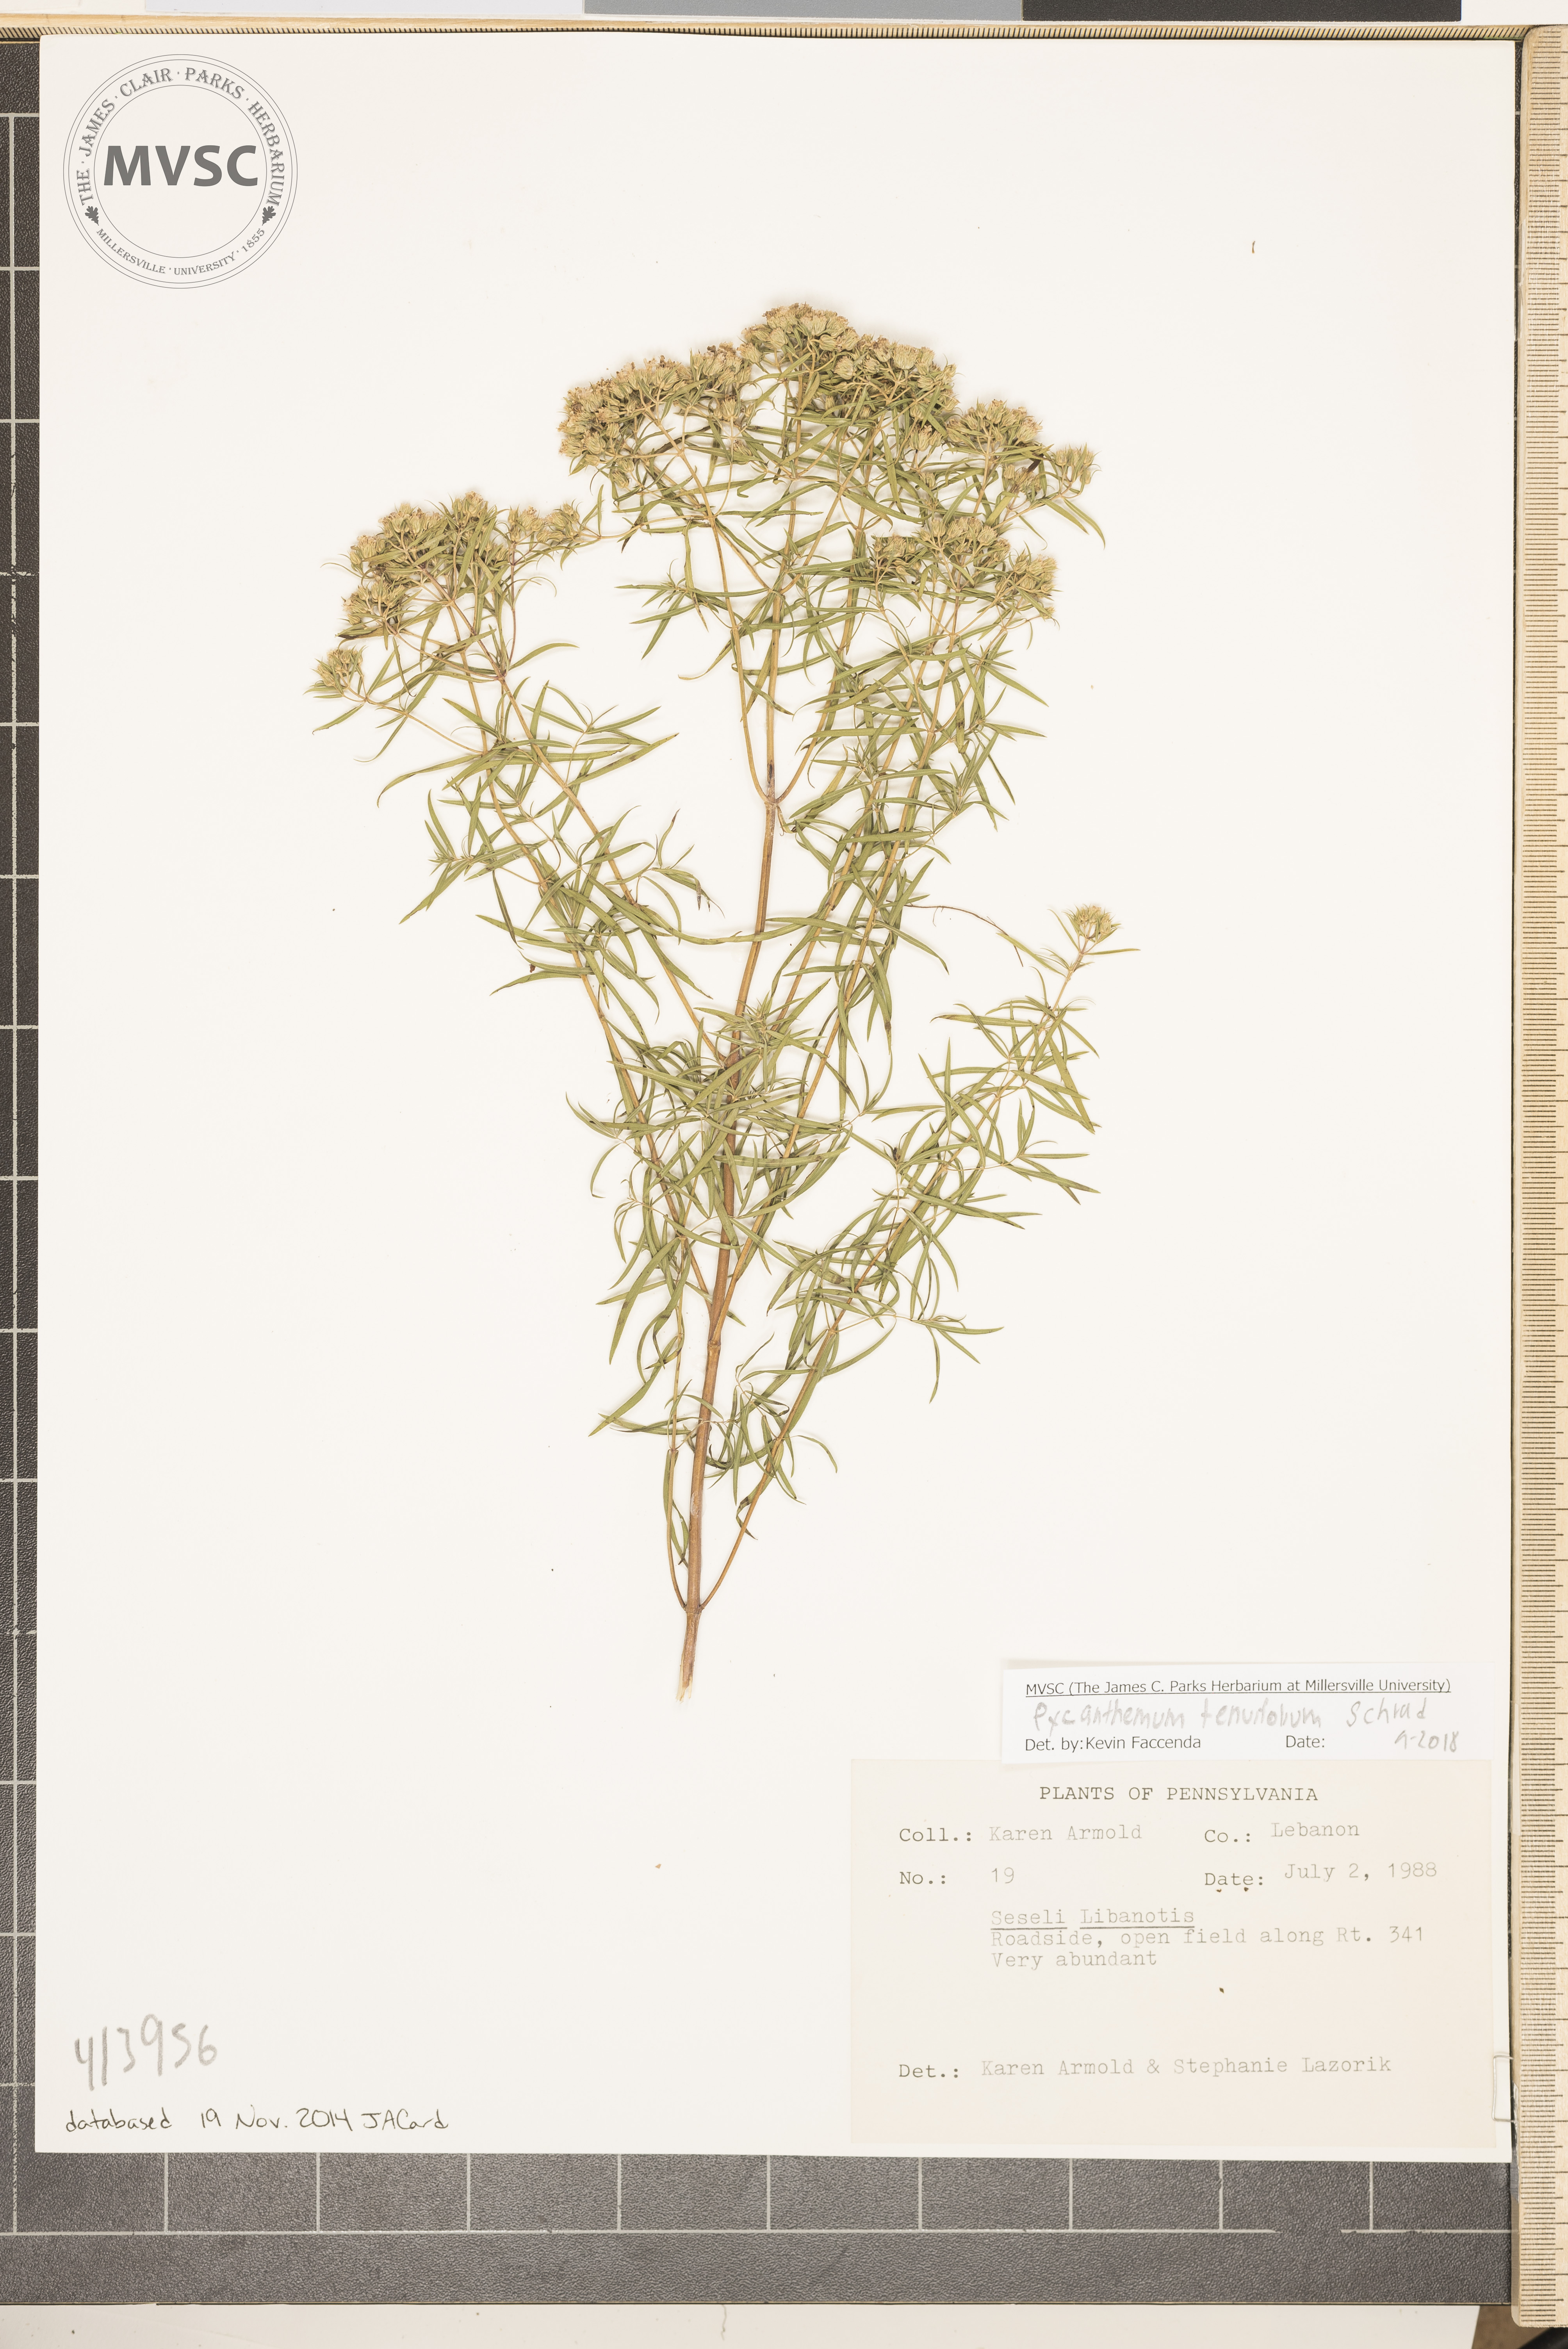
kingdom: Plantae
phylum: Tracheophyta
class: Magnoliopsida
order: Lamiales
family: Lamiaceae
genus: Pycnanthemum
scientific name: Pycnanthemum tenuifolium
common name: Narrow-leaf mountain-mint
